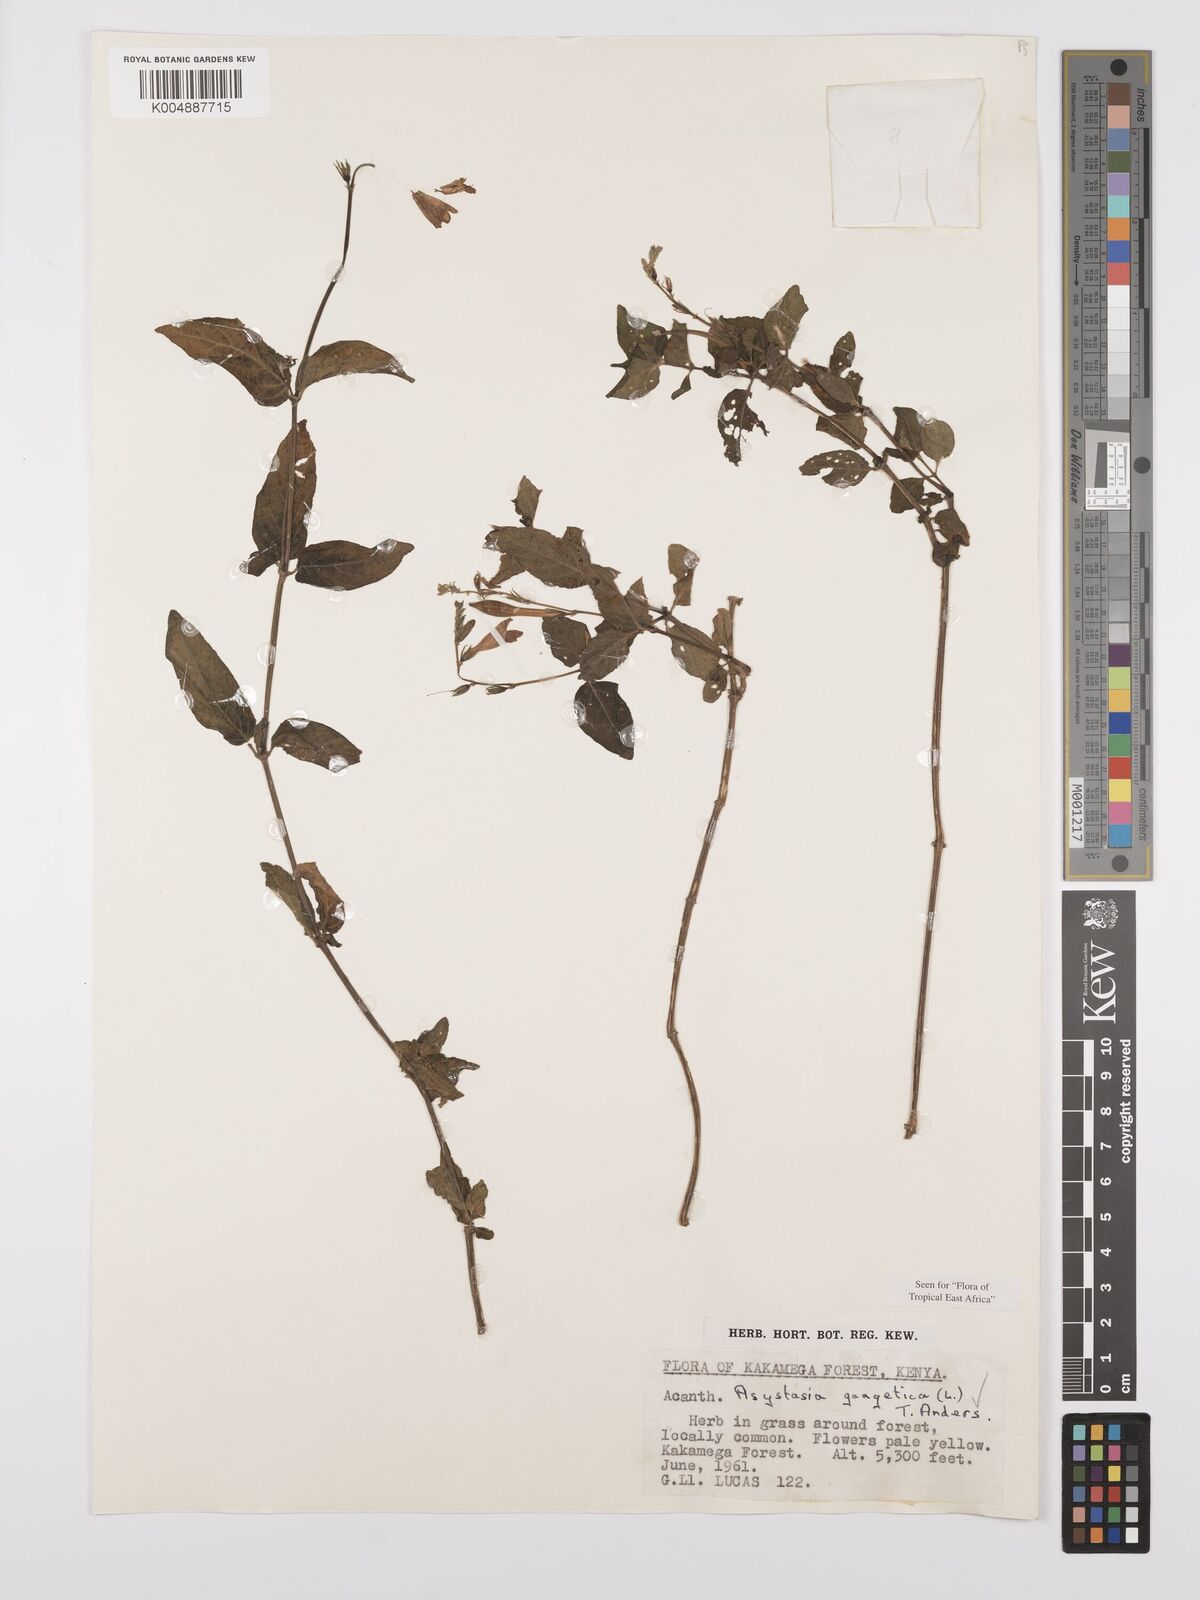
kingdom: Plantae
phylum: Tracheophyta
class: Magnoliopsida
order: Lamiales
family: Acanthaceae
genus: Asystasia
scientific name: Asystasia gangetica
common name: Chinese violet
